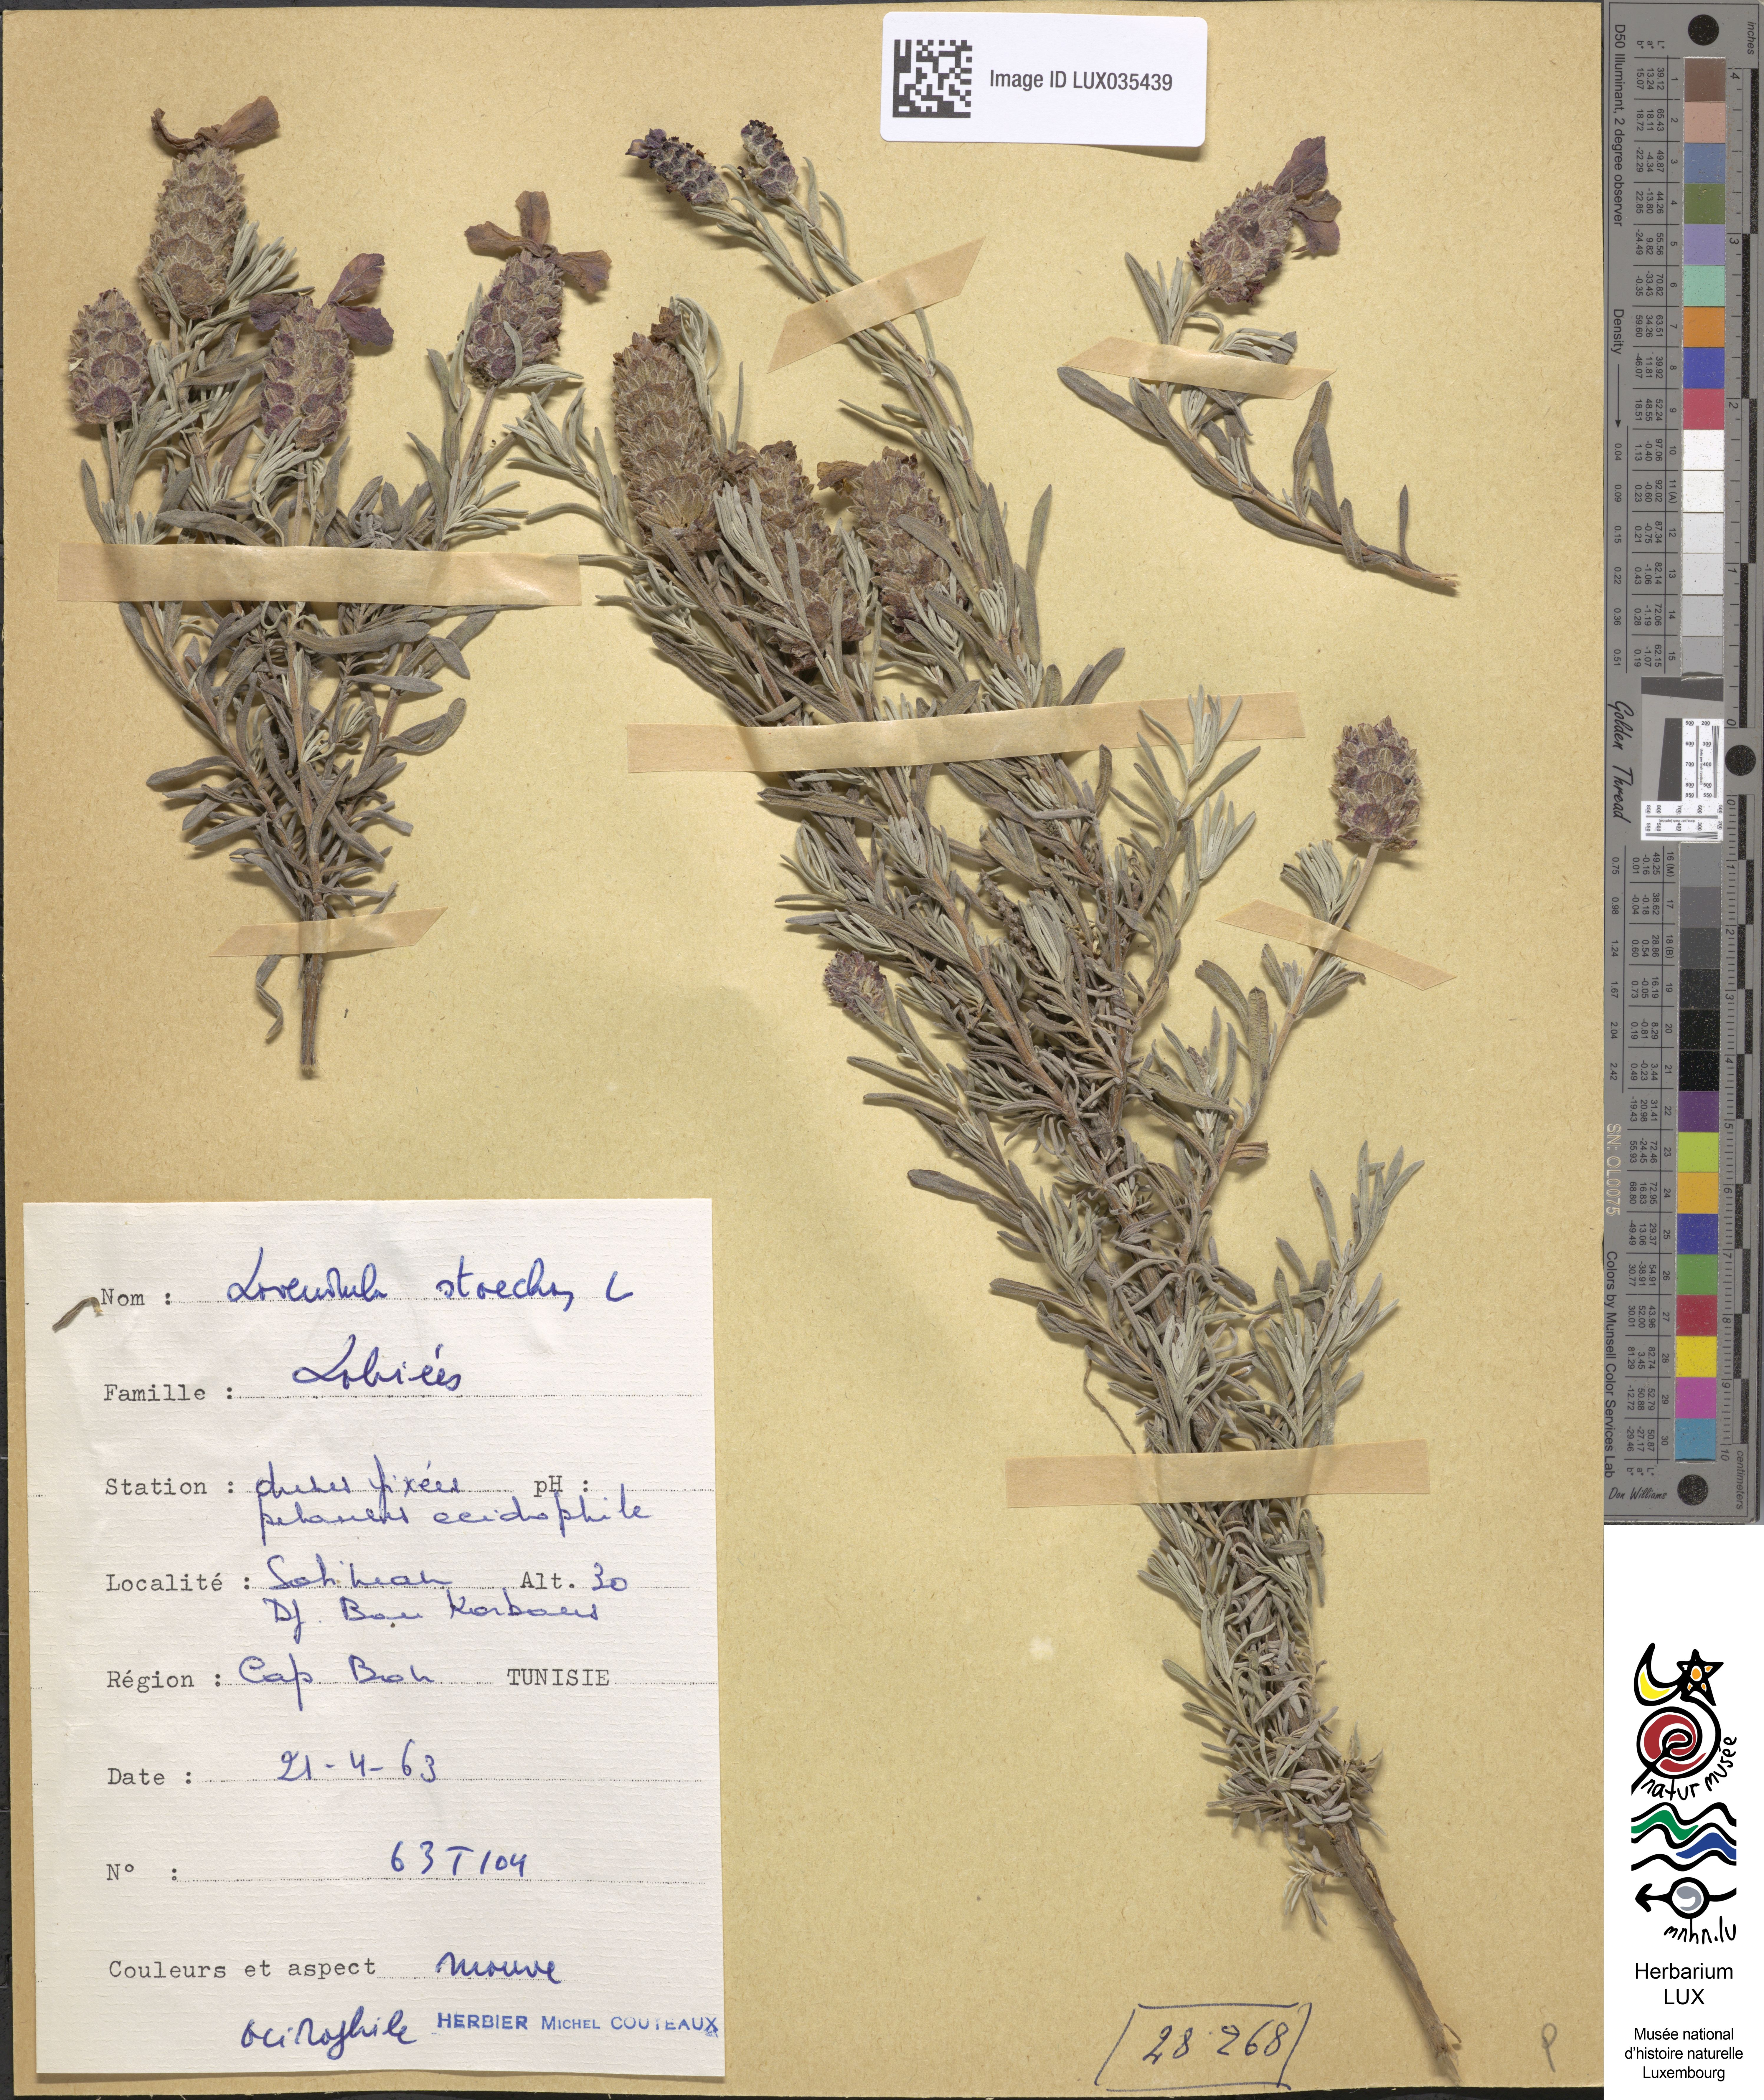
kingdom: Plantae
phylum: Tracheophyta
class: Magnoliopsida
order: Lamiales
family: Lamiaceae
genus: Lavandula
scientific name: Lavandula stoechas
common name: French lavender
